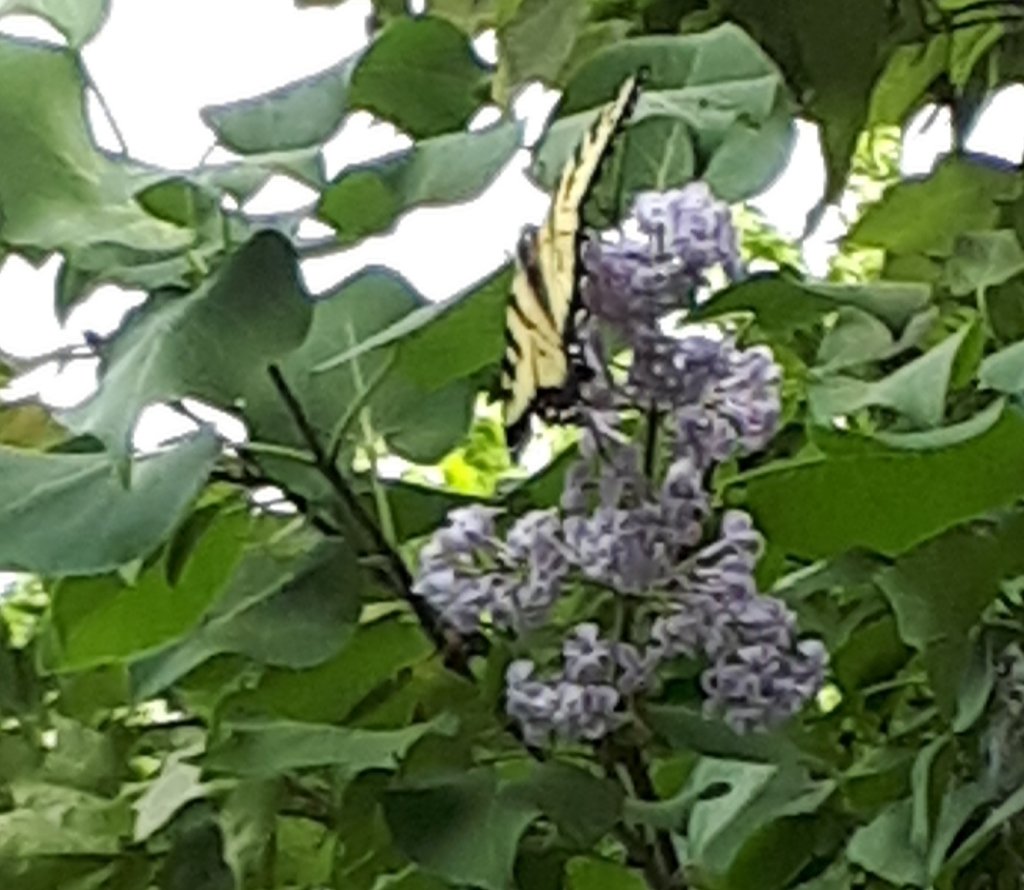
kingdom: Animalia
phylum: Arthropoda
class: Insecta
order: Lepidoptera
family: Papilionidae
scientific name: Papilionidae
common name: Swallowtails and Parnassians
